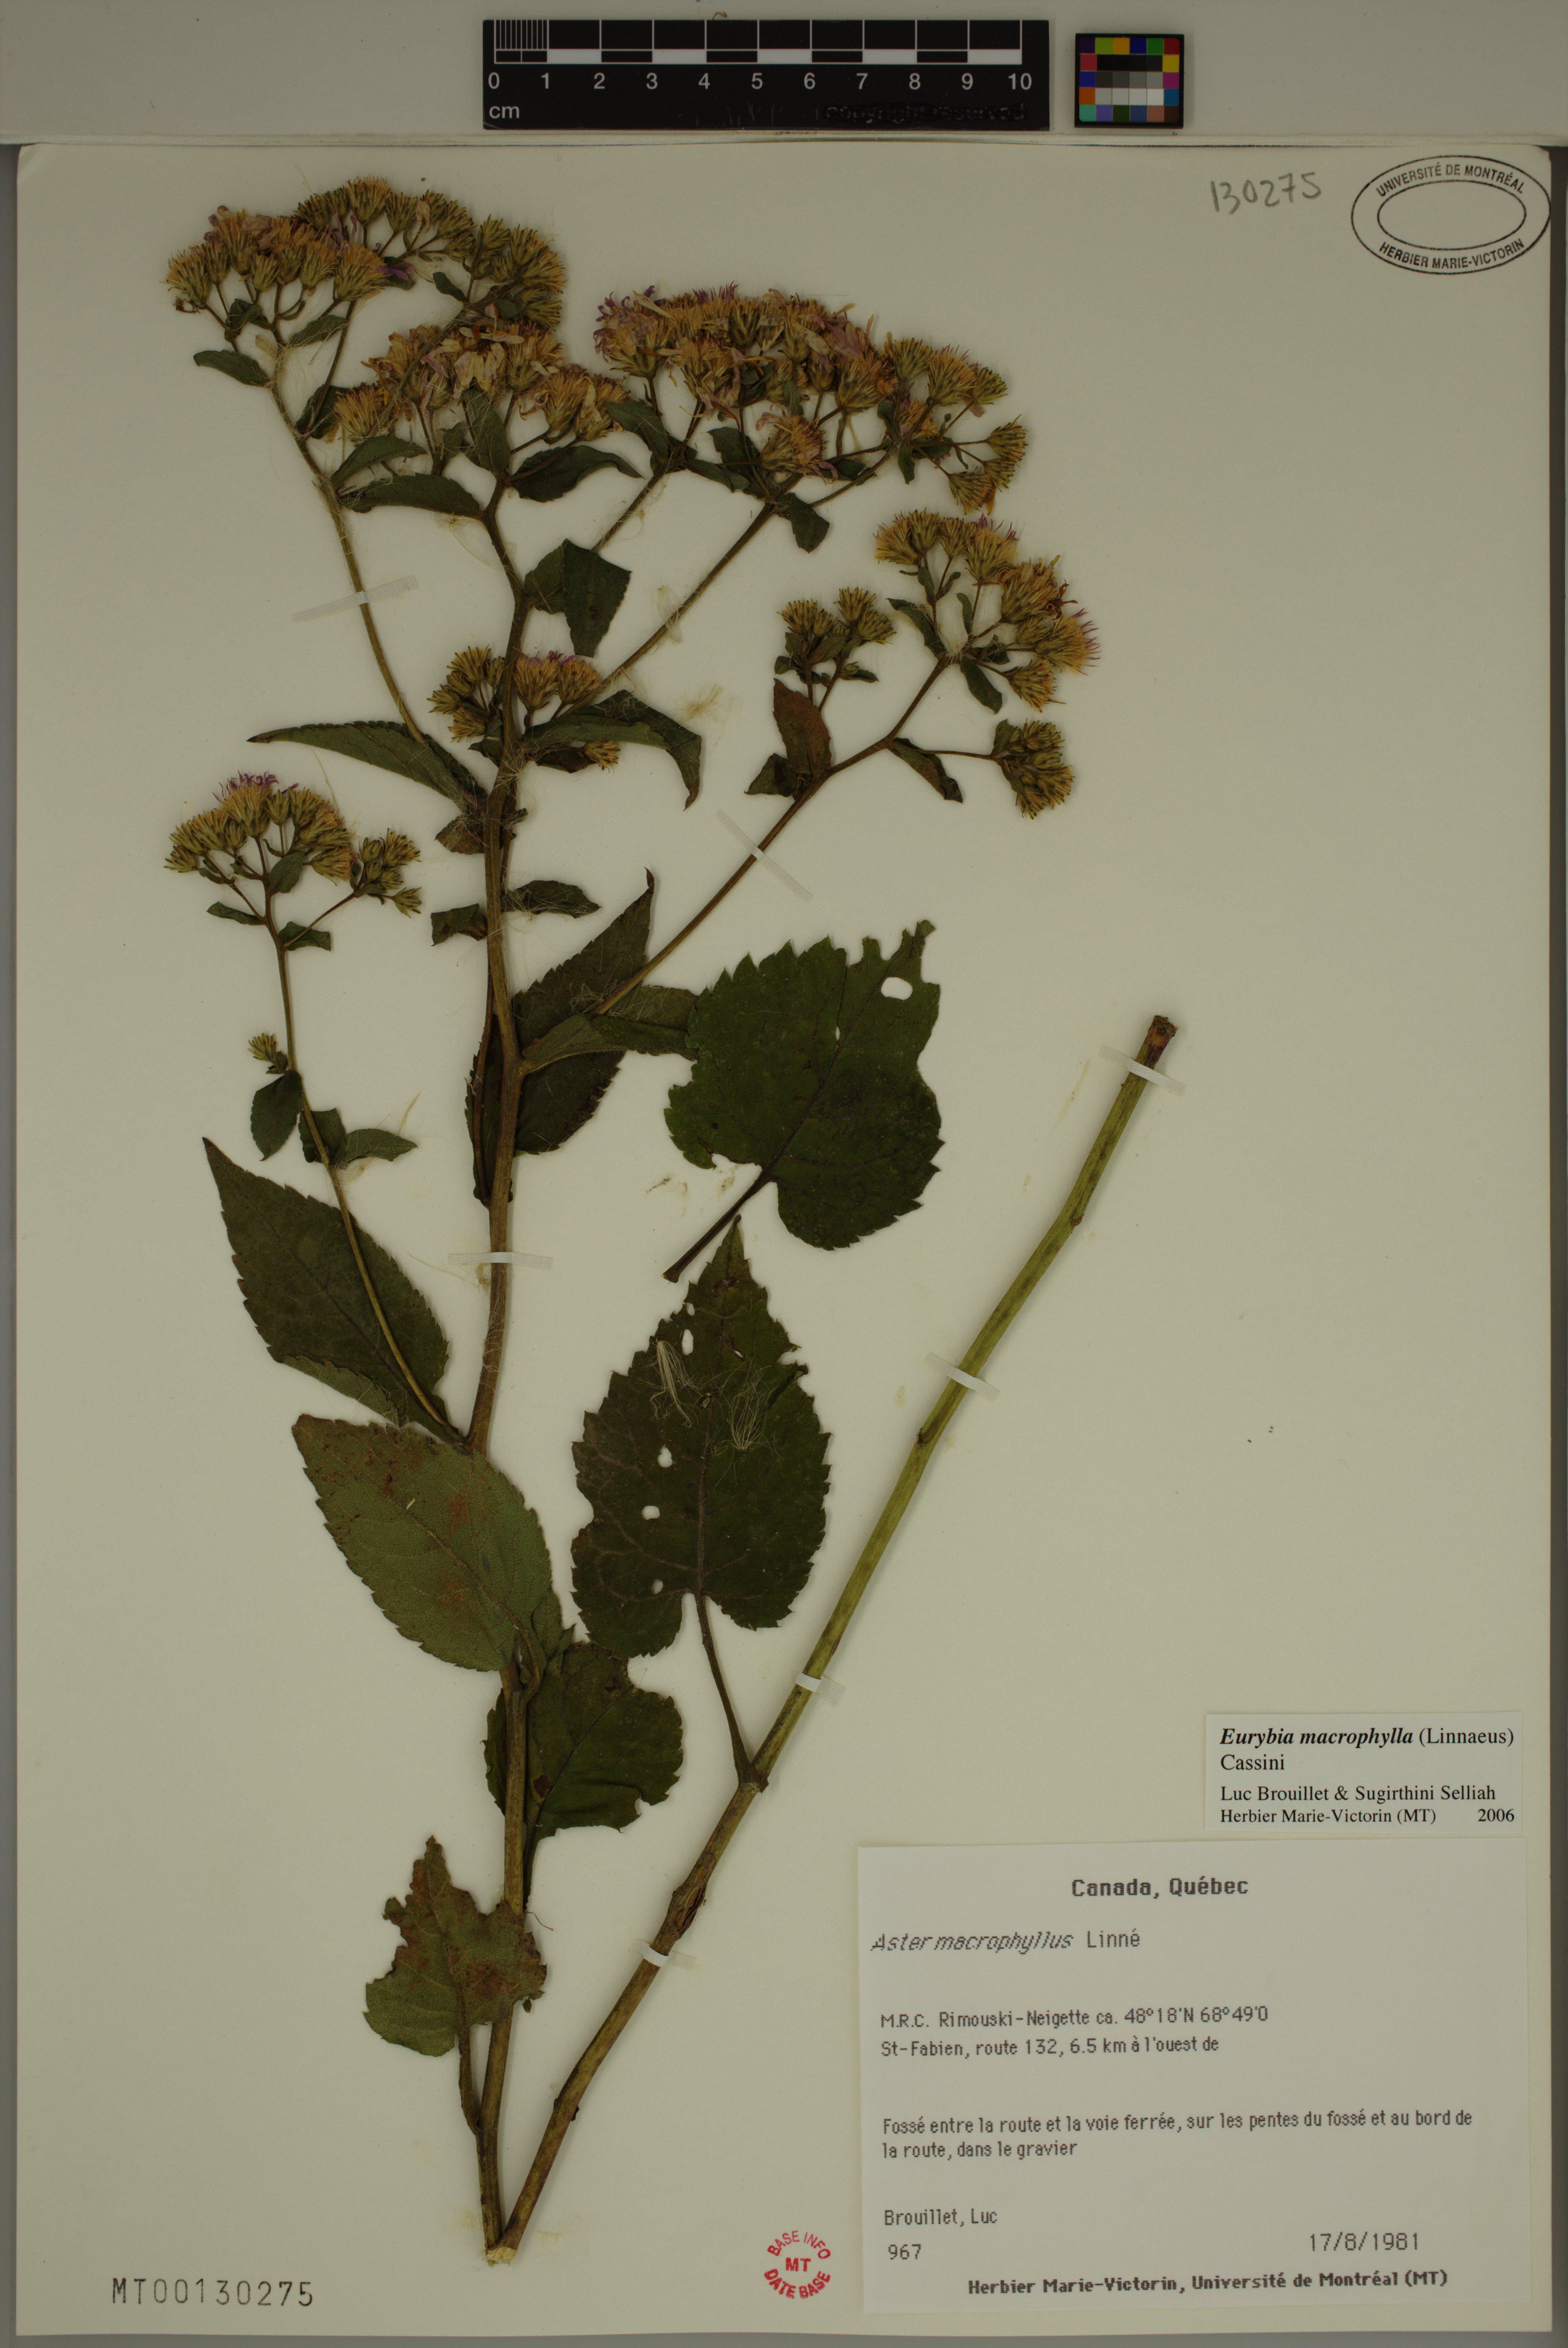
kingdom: Plantae
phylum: Tracheophyta
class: Magnoliopsida
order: Asterales
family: Asteraceae
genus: Eurybia
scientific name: Eurybia macrophylla
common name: Big-leaved aster
